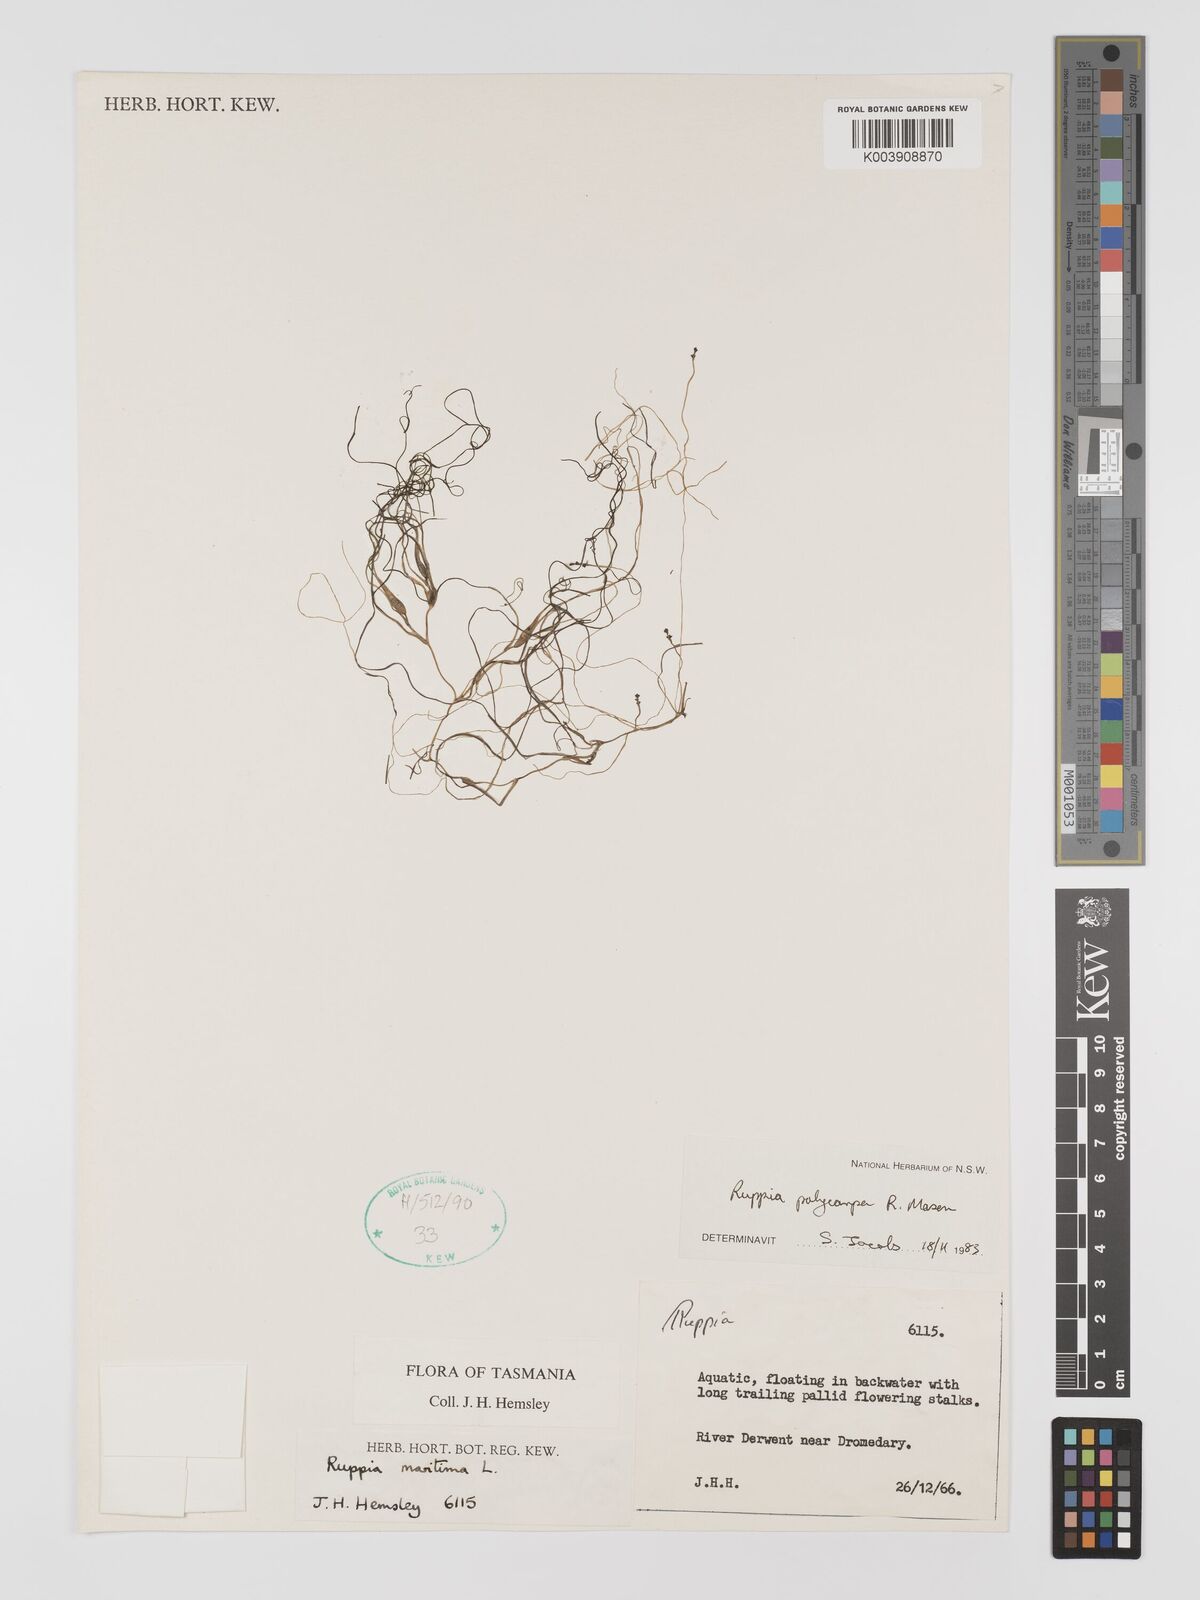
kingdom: Plantae
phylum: Tracheophyta
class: Liliopsida
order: Alismatales
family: Ruppiaceae
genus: Ruppia
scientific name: Ruppia polycarpa
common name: Species code: rp
